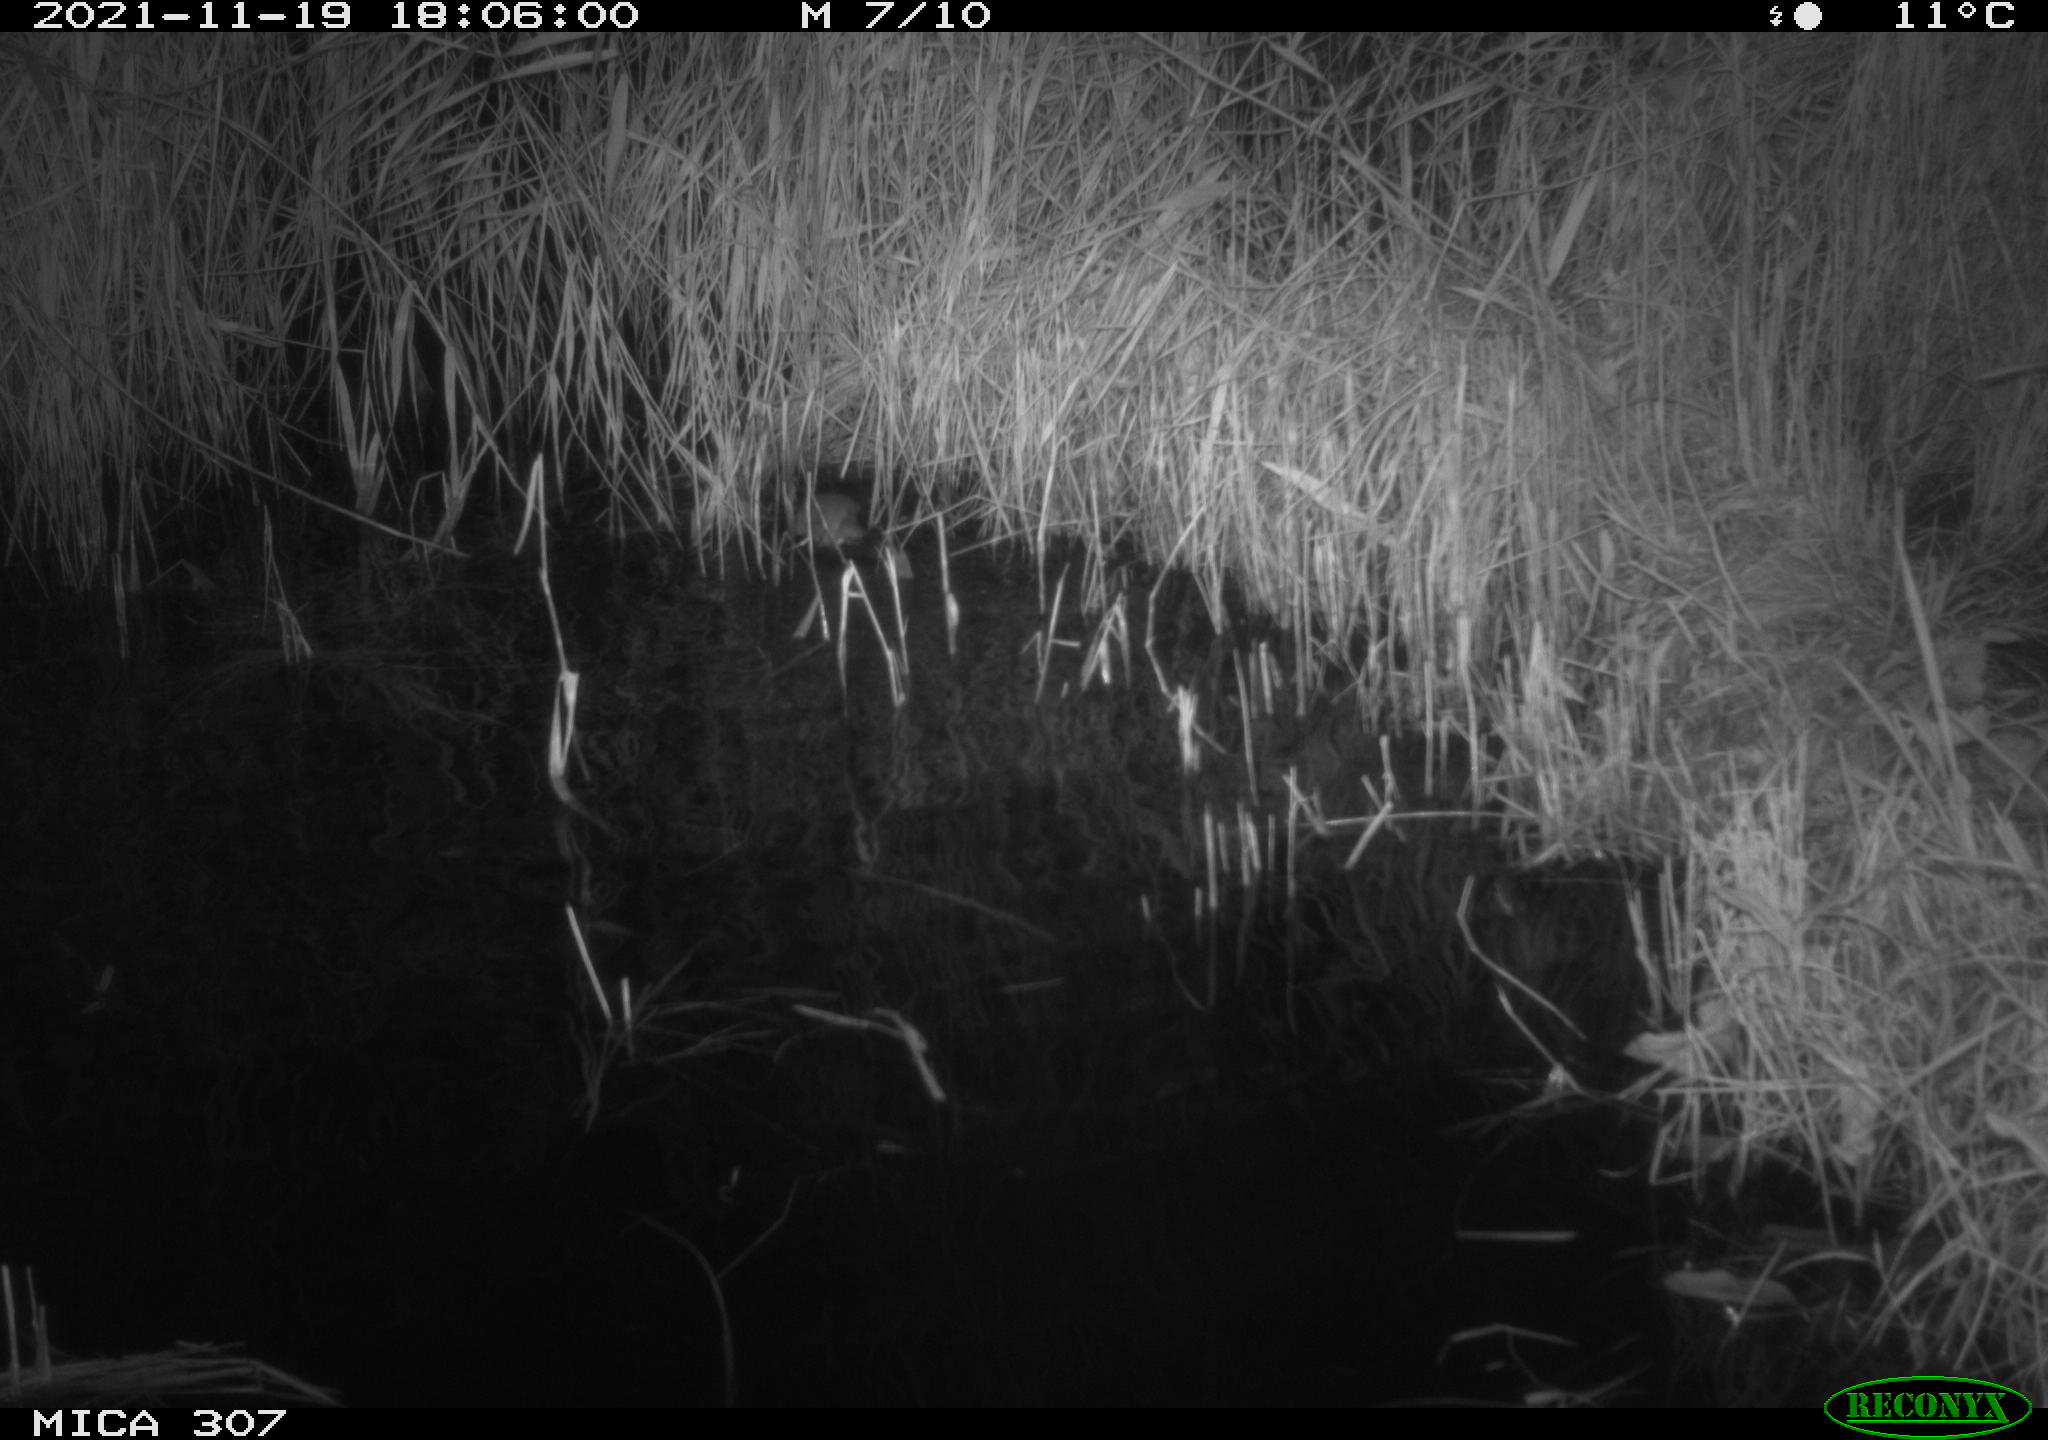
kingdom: Animalia
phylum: Chordata
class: Mammalia
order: Rodentia
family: Muridae
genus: Rattus
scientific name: Rattus norvegicus
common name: Brown rat
